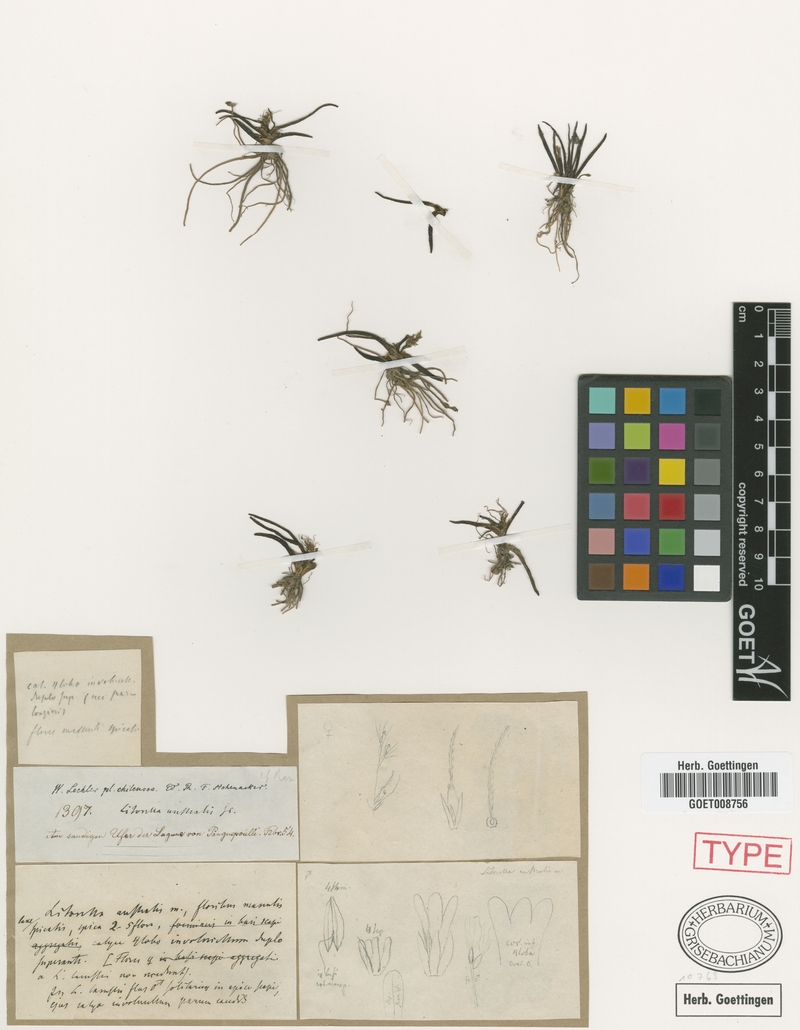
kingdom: Plantae
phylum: Tracheophyta
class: Magnoliopsida
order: Lamiales
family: Plantaginaceae
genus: Littorella
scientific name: Littorella australis
